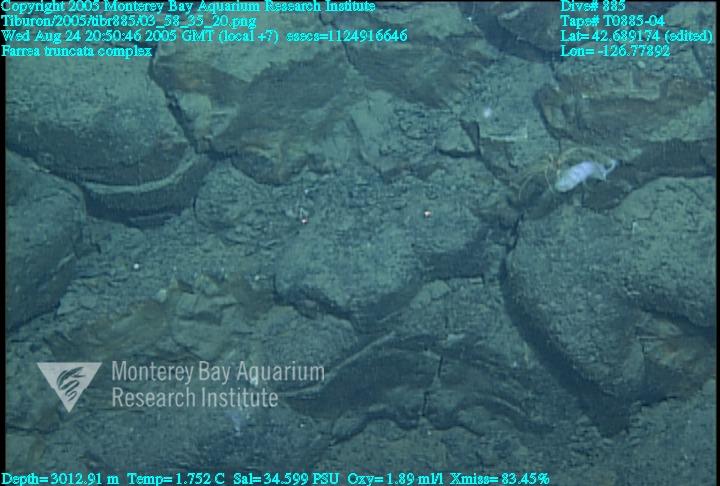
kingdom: Animalia
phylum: Porifera
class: Hexactinellida
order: Sceptrulophora
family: Farreidae
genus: Farrea
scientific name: Farrea truncata
